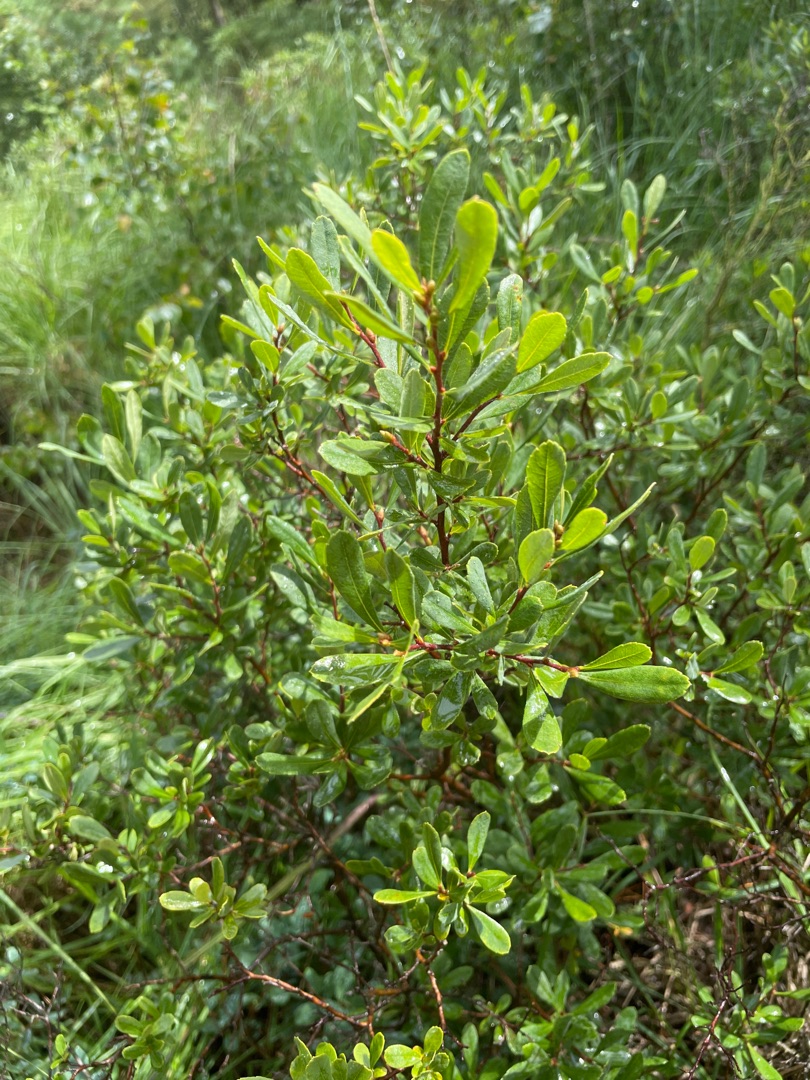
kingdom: Plantae
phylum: Tracheophyta
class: Magnoliopsida
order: Fagales
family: Myricaceae
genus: Myrica
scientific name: Myrica gale
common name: Pors
